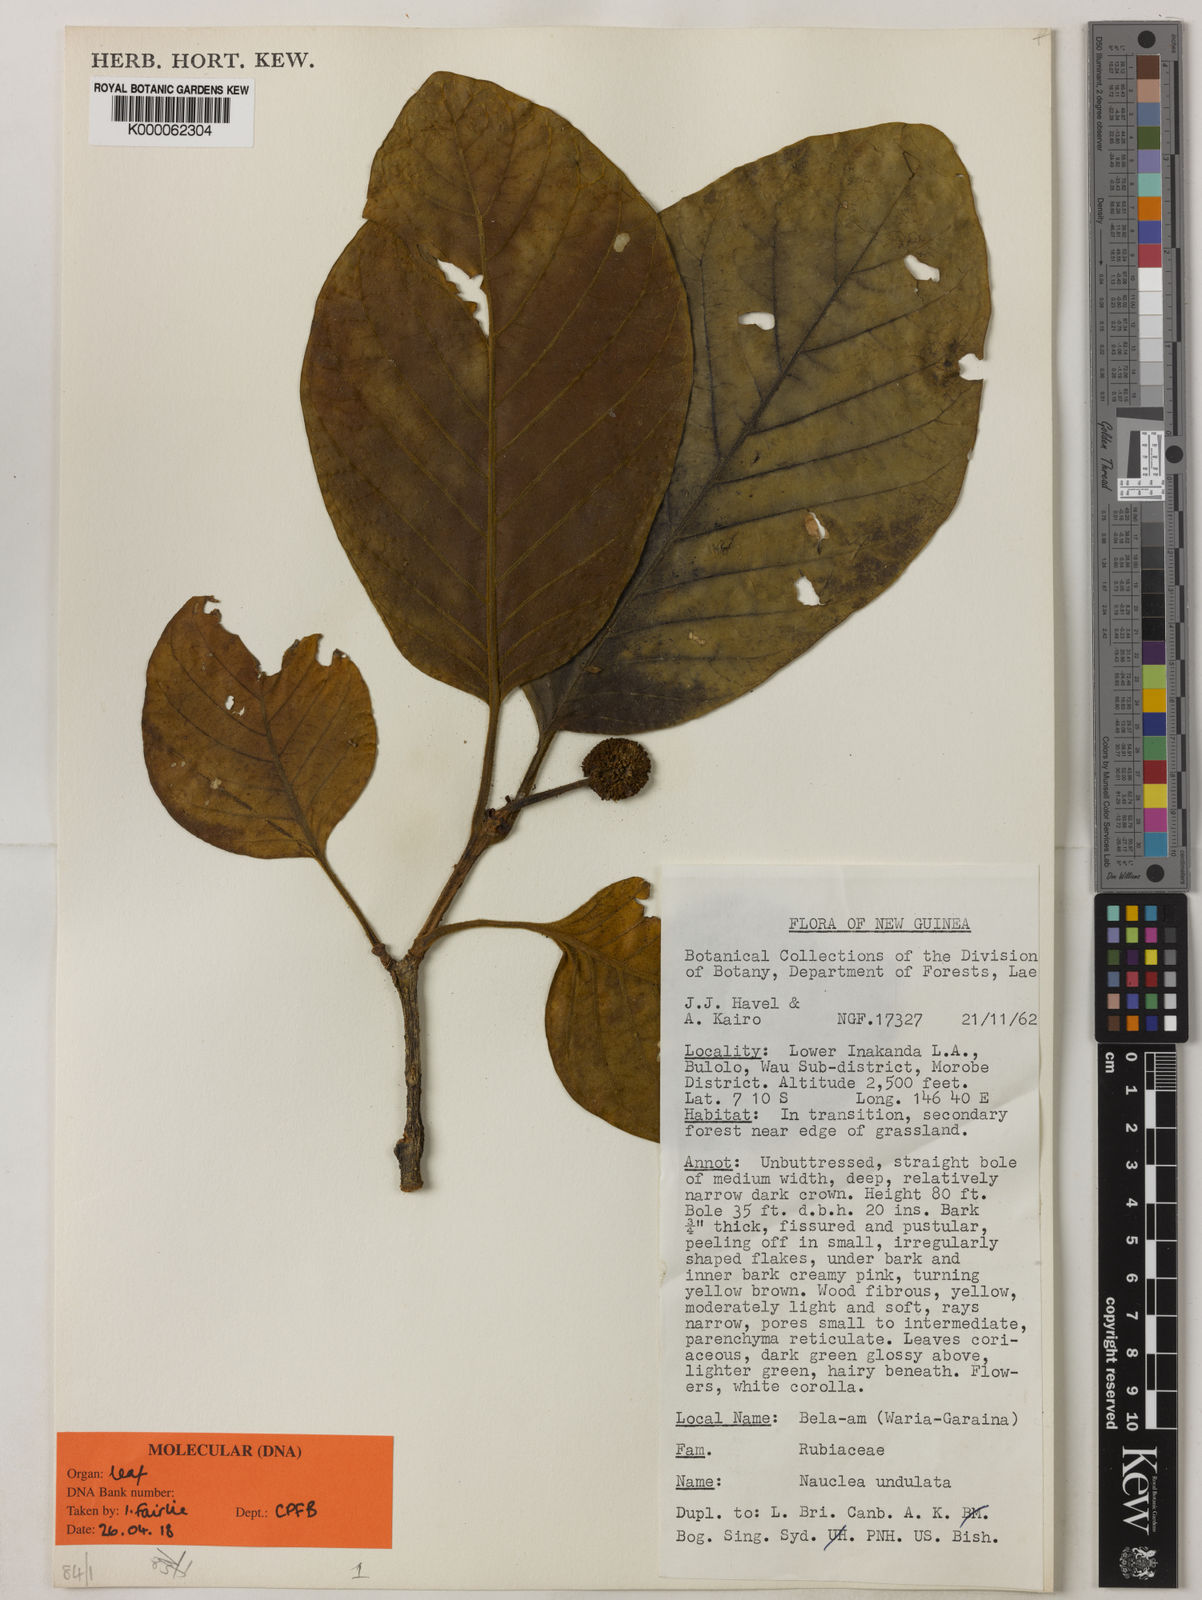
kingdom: Plantae
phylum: Tracheophyta
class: Magnoliopsida
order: Gentianales
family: Rubiaceae
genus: Nauclea
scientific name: Nauclea orientalis
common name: Leichhardt-pine
